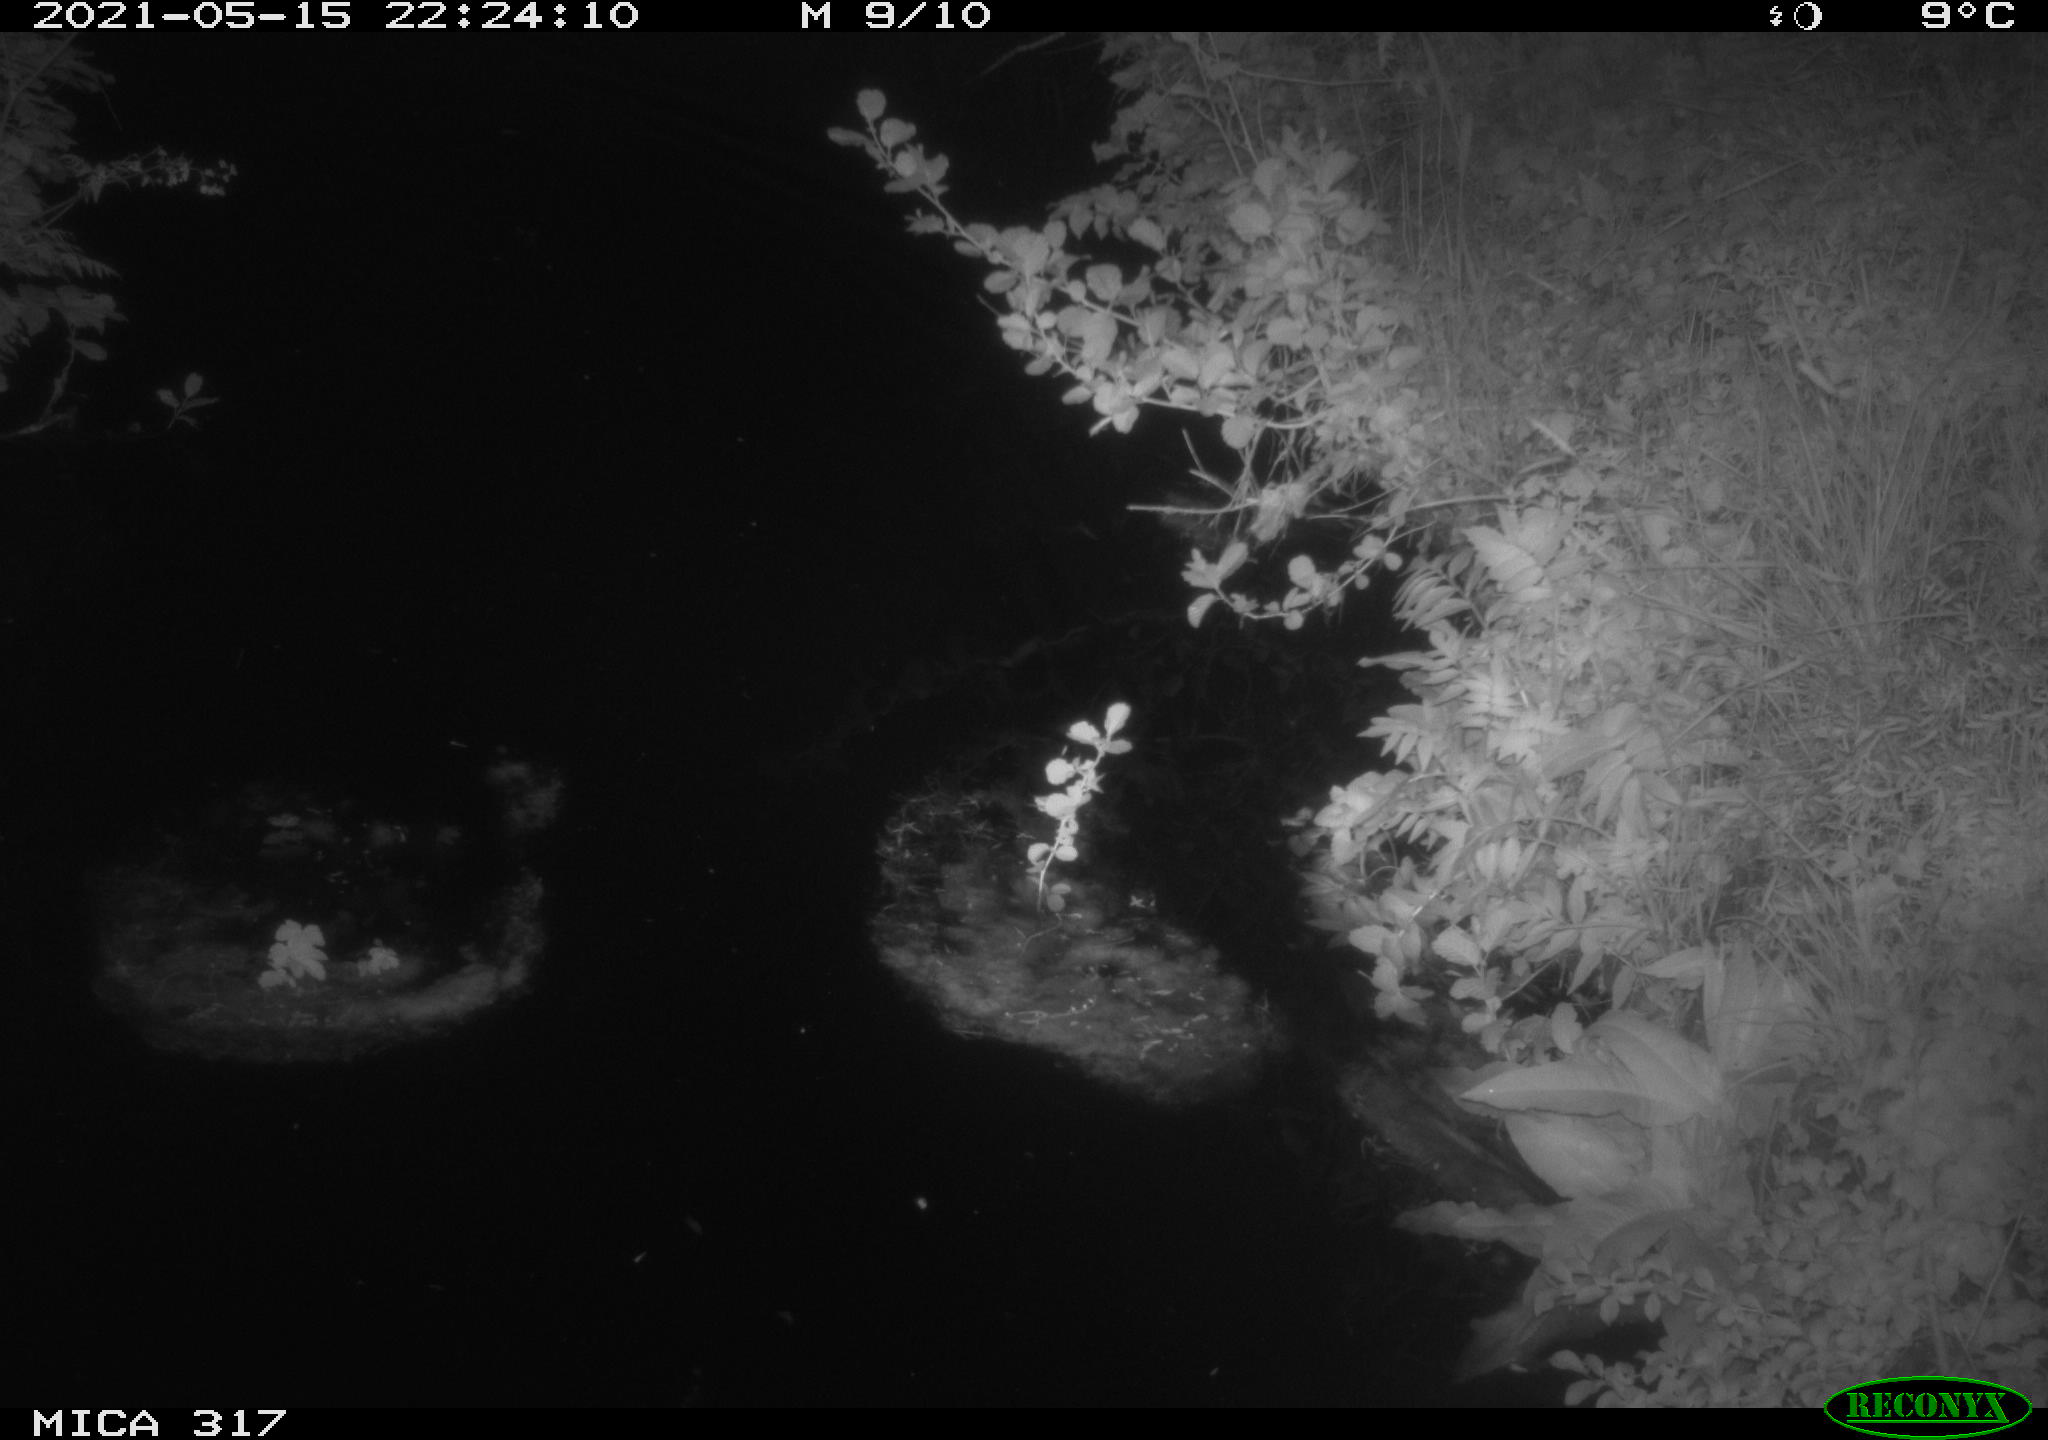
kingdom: Animalia
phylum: Chordata
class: Aves
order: Anseriformes
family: Anatidae
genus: Anas
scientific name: Anas
